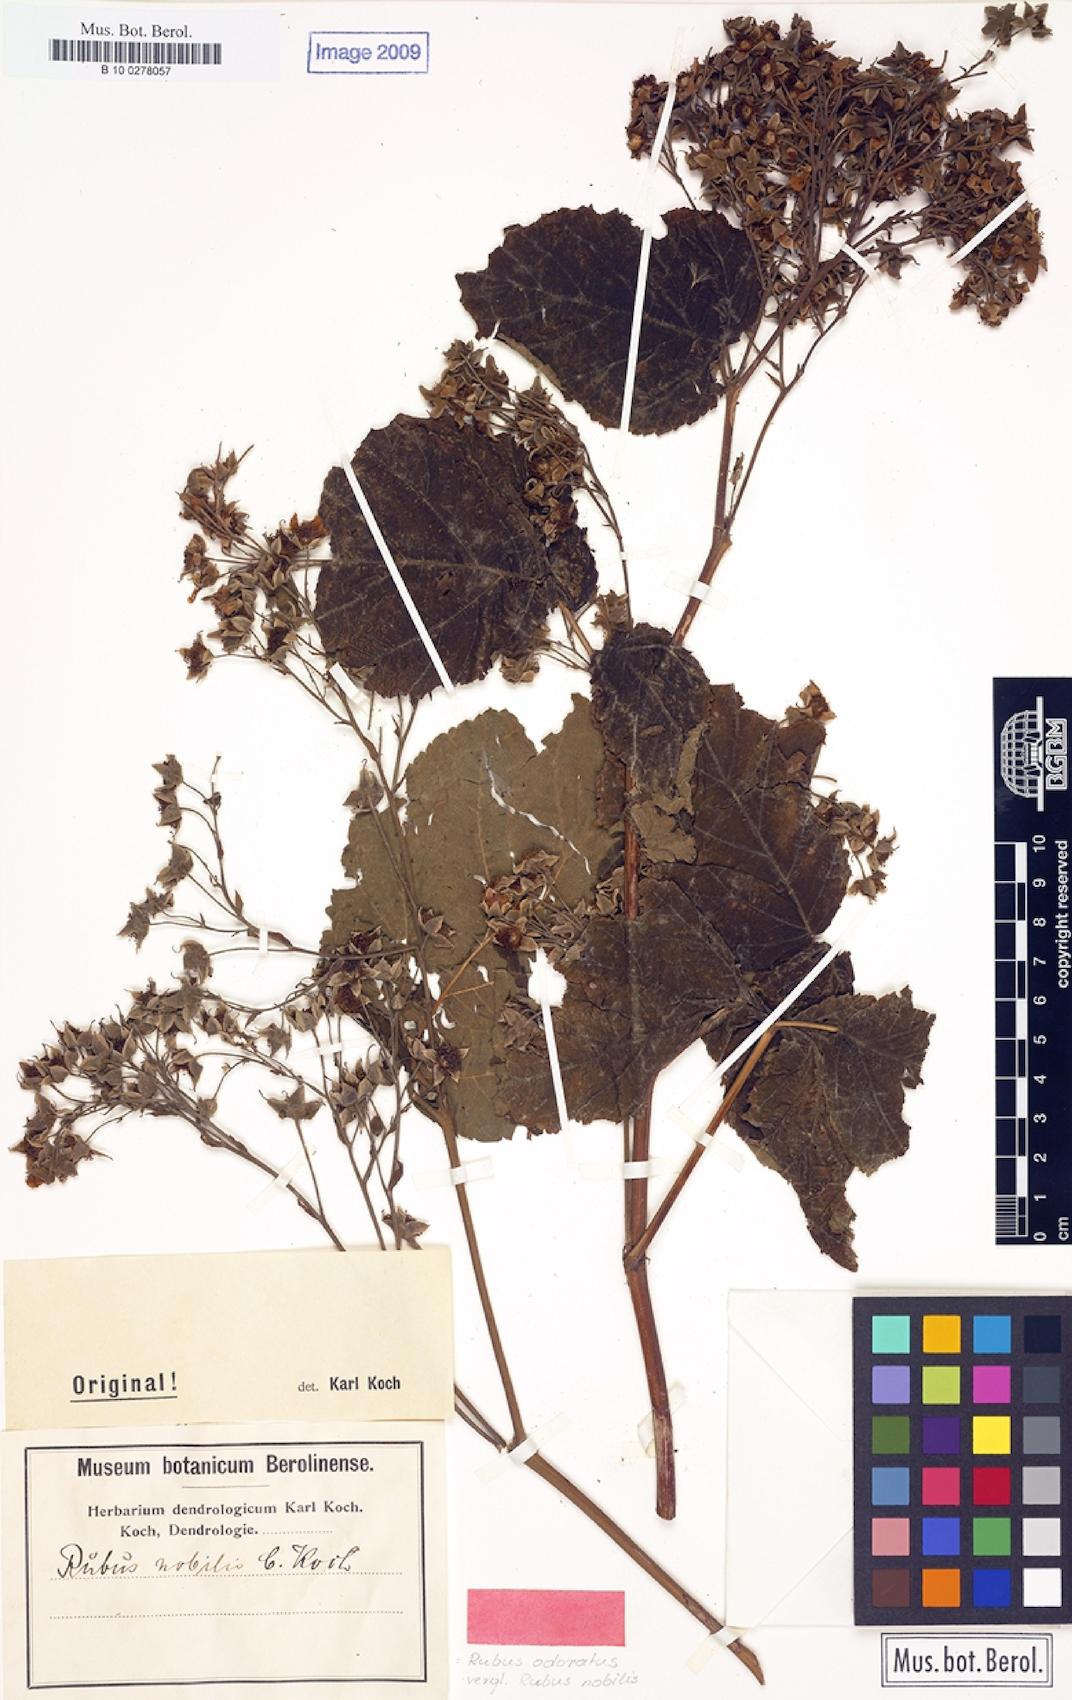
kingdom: Plantae
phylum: Tracheophyta
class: Magnoliopsida
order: Rosales
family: Rosaceae
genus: Rubus
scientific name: Rubus odoratus
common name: Purple-flowered raspberry
